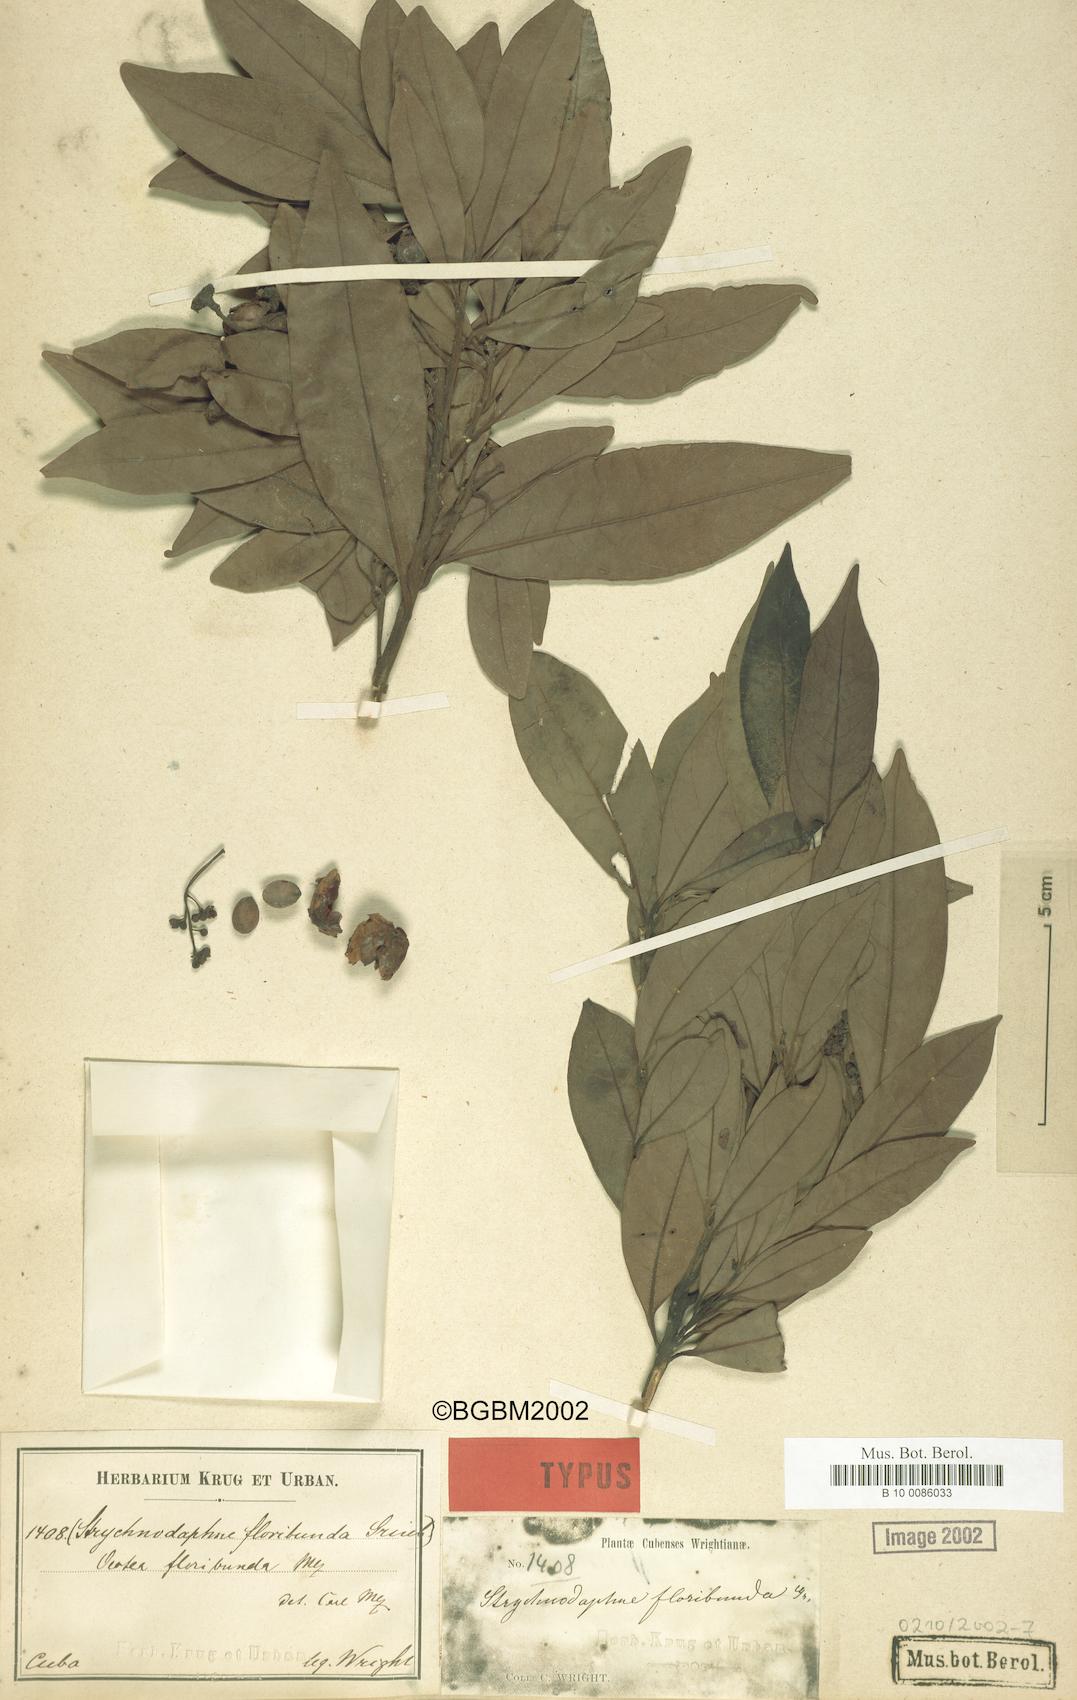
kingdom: Plantae
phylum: Tracheophyta
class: Magnoliopsida
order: Laurales
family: Lauraceae
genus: Ocotea
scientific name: Ocotea floribunda
